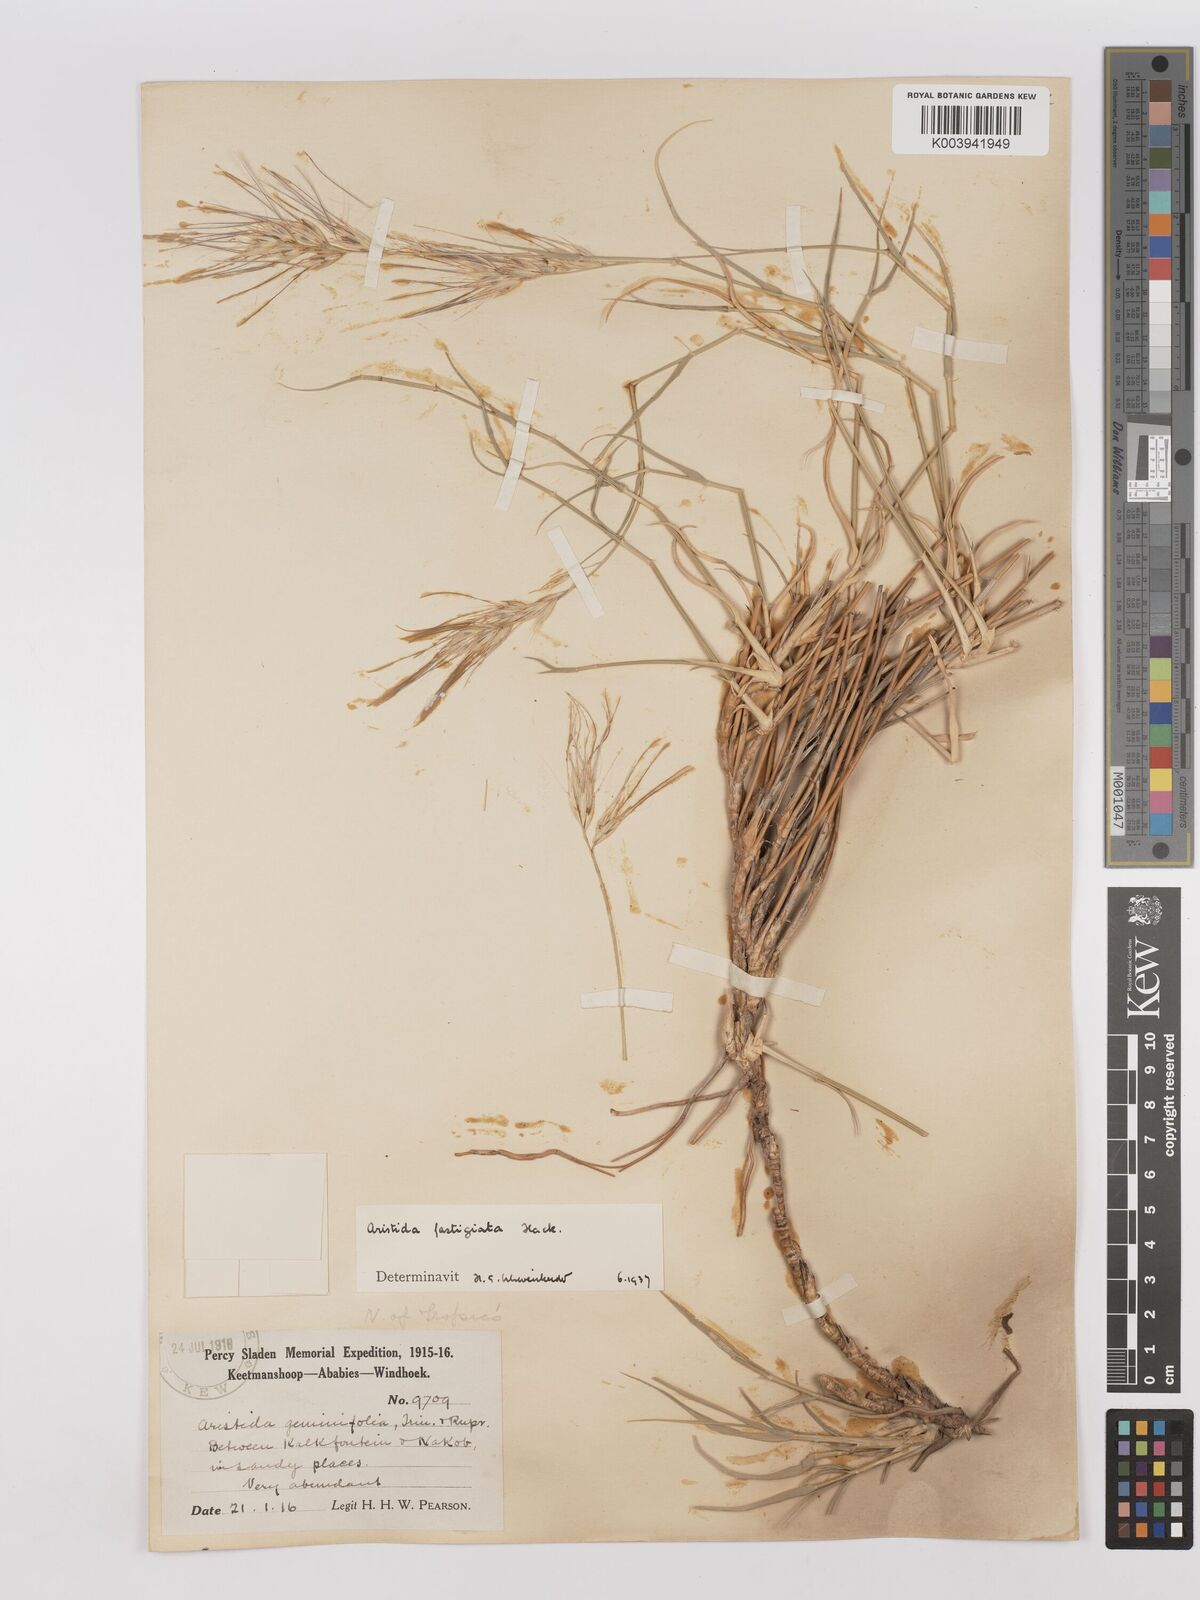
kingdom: Plantae
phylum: Tracheophyta
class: Liliopsida
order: Poales
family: Poaceae
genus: Stipagrostis
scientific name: Stipagrostis fastigiata
